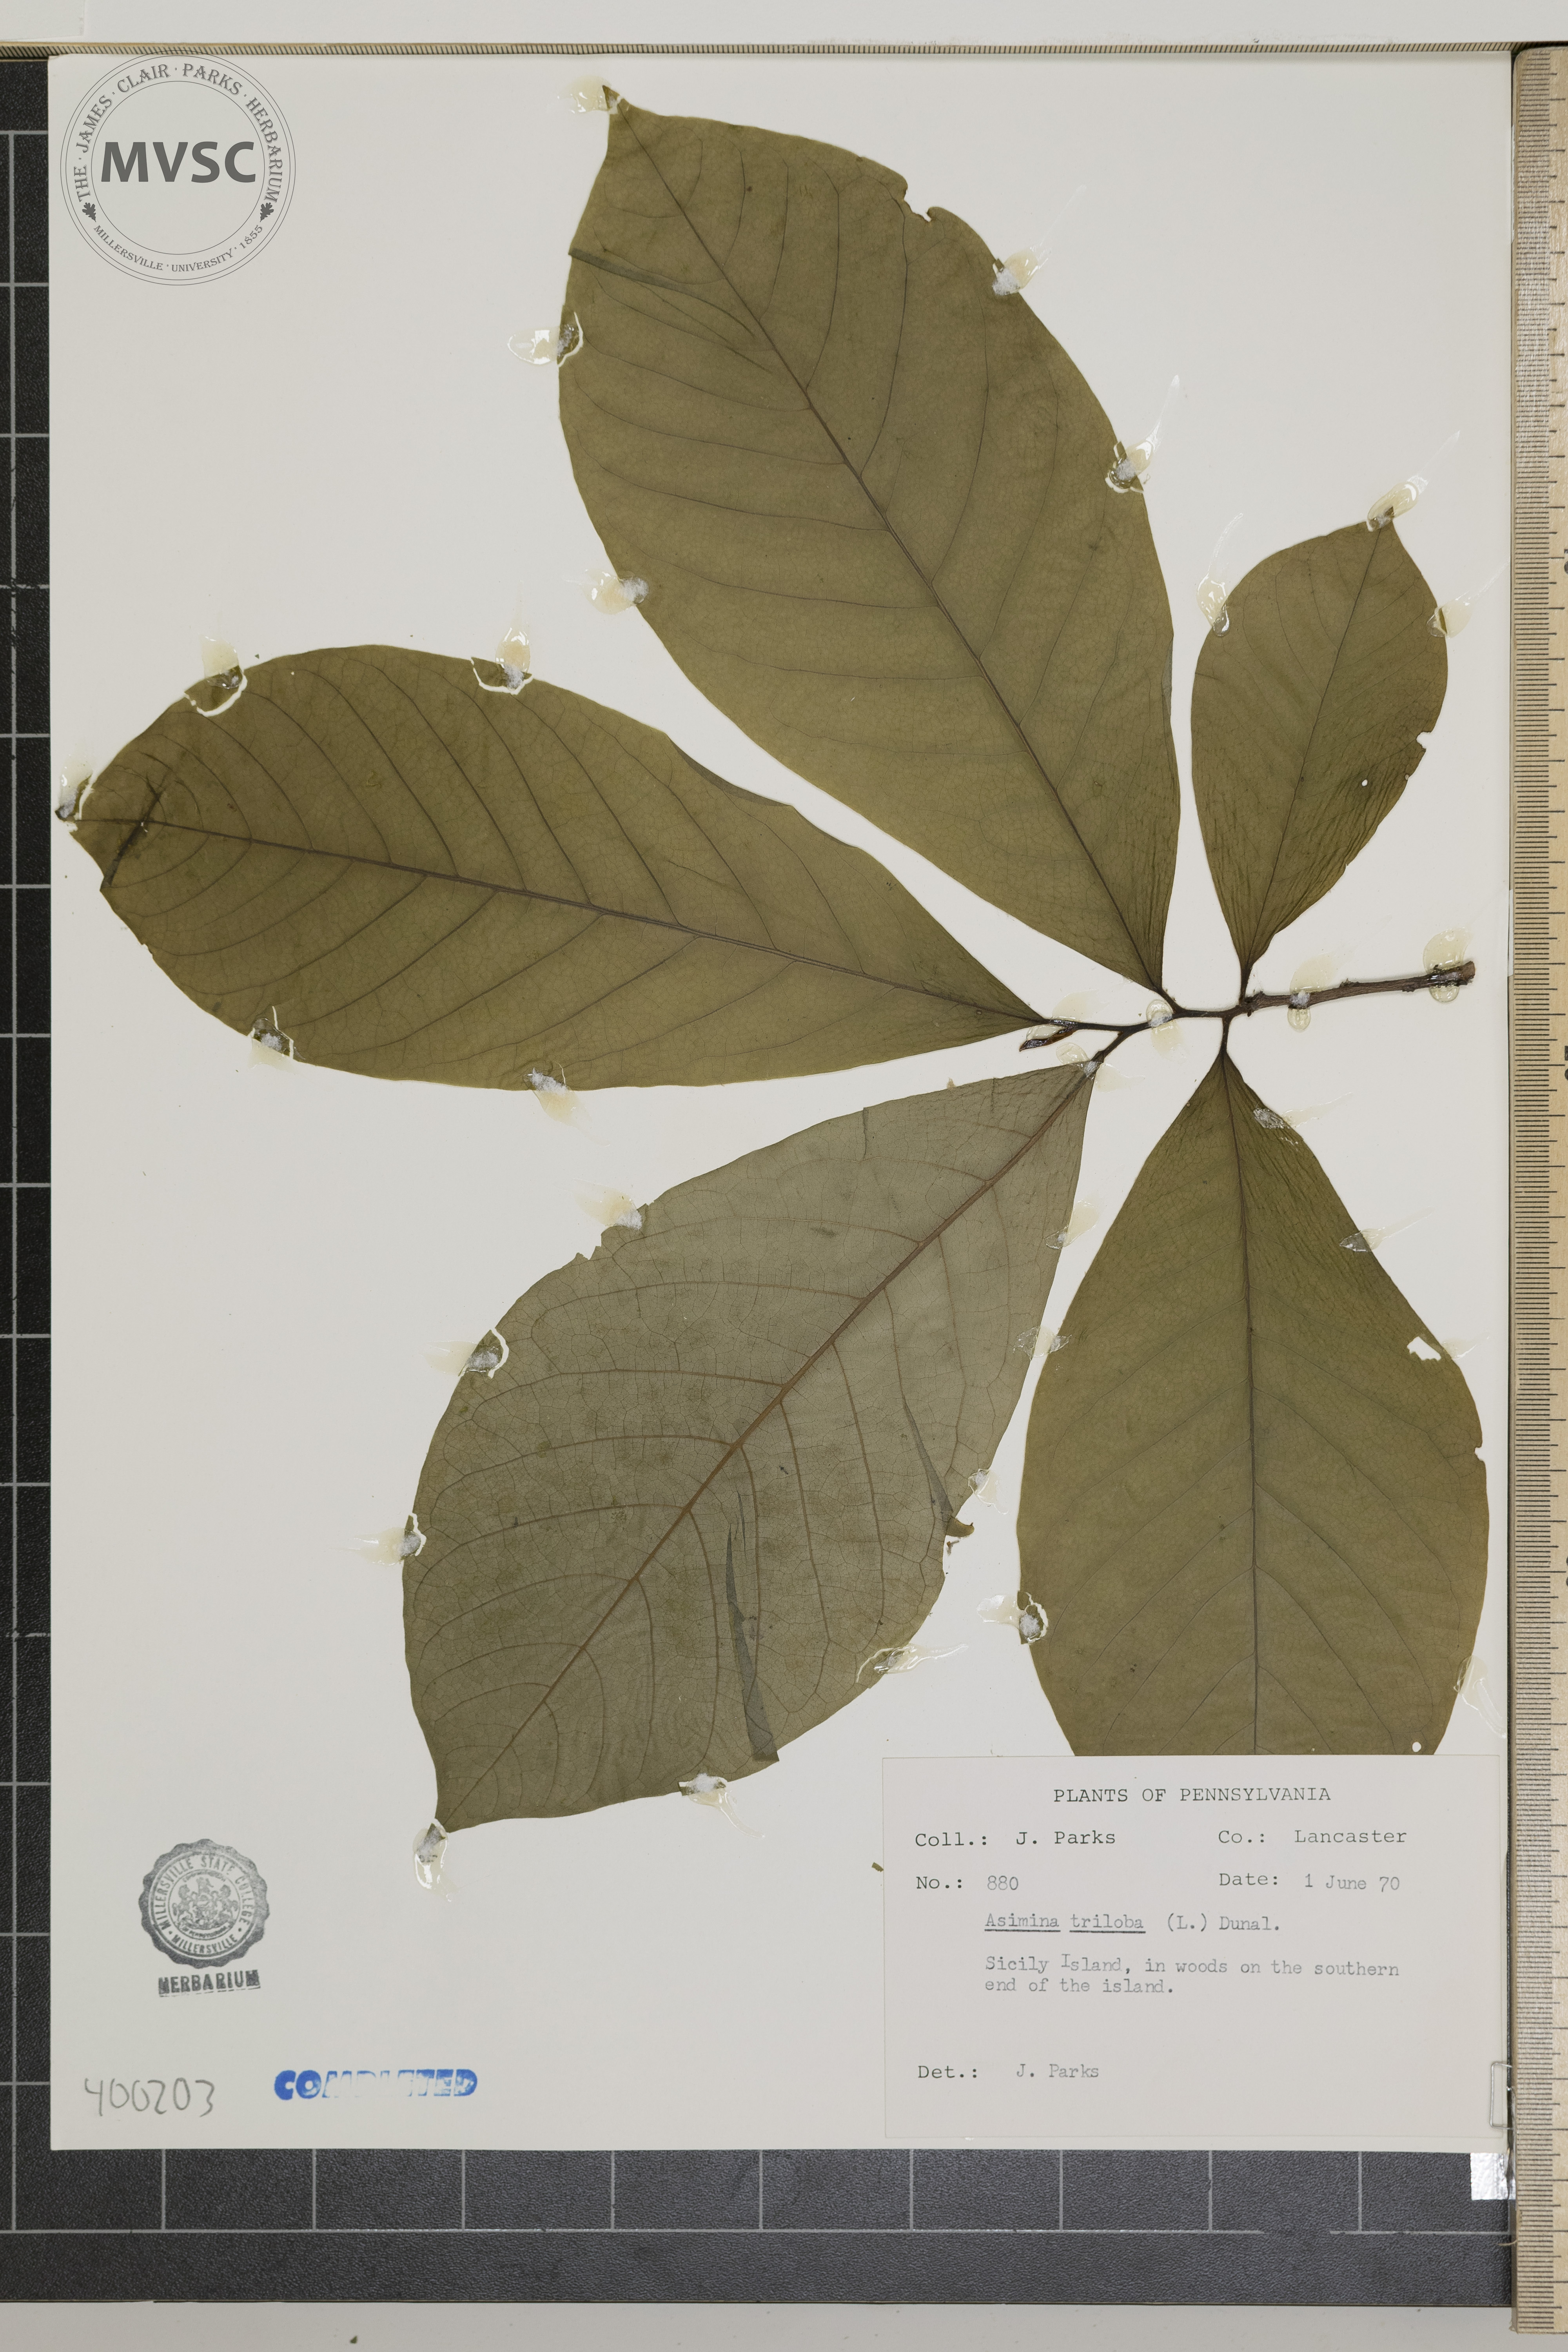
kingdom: Plantae
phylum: Tracheophyta
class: Magnoliopsida
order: Magnoliales
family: Annonaceae
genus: Asimina
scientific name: Asimina triloba
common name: pawpaw
